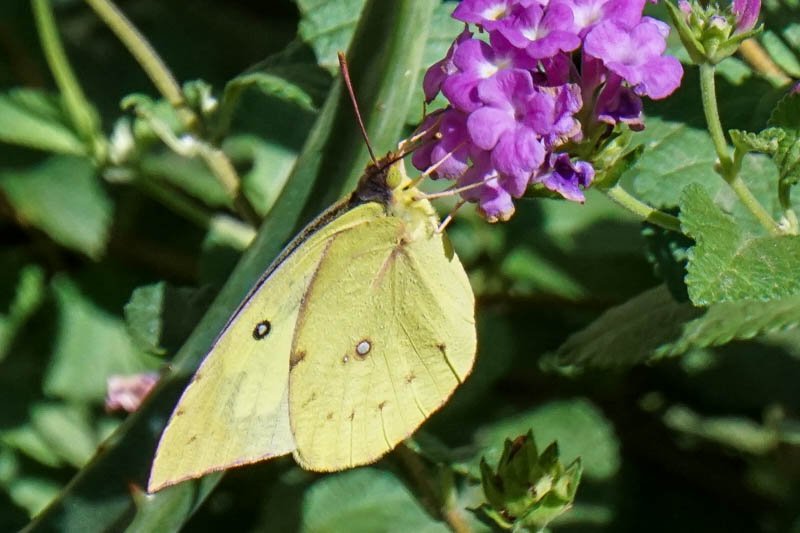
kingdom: Animalia
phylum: Arthropoda
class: Insecta
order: Lepidoptera
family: Pieridae
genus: Zerene
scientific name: Zerene cesonia
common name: Southern Dogface
